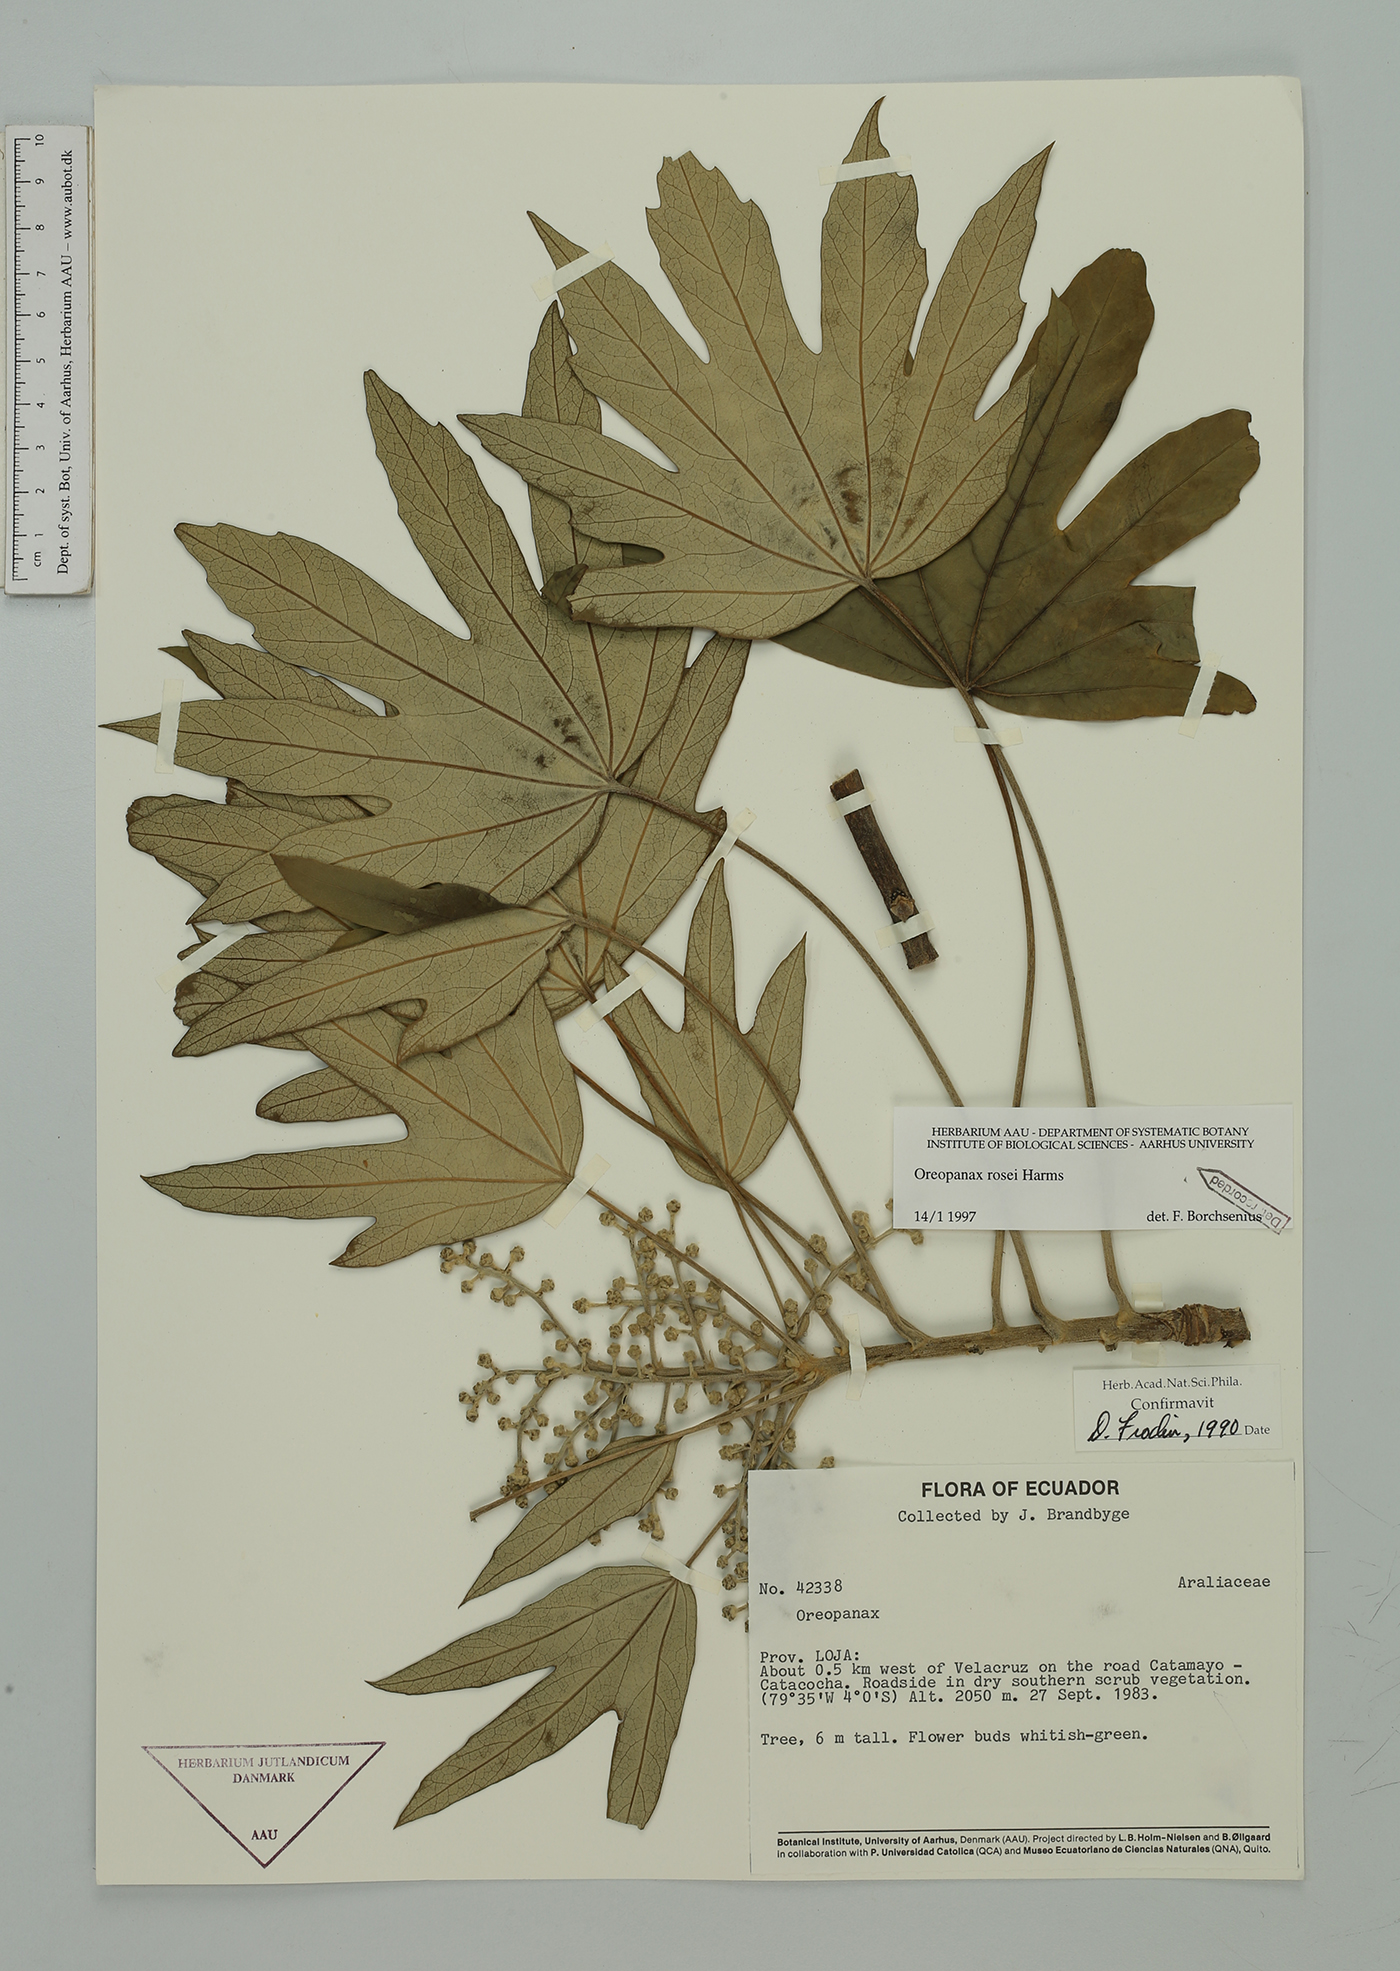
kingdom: Plantae
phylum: Tracheophyta
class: Magnoliopsida
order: Apiales
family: Araliaceae
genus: Oreopanax
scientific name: Oreopanax rosei
